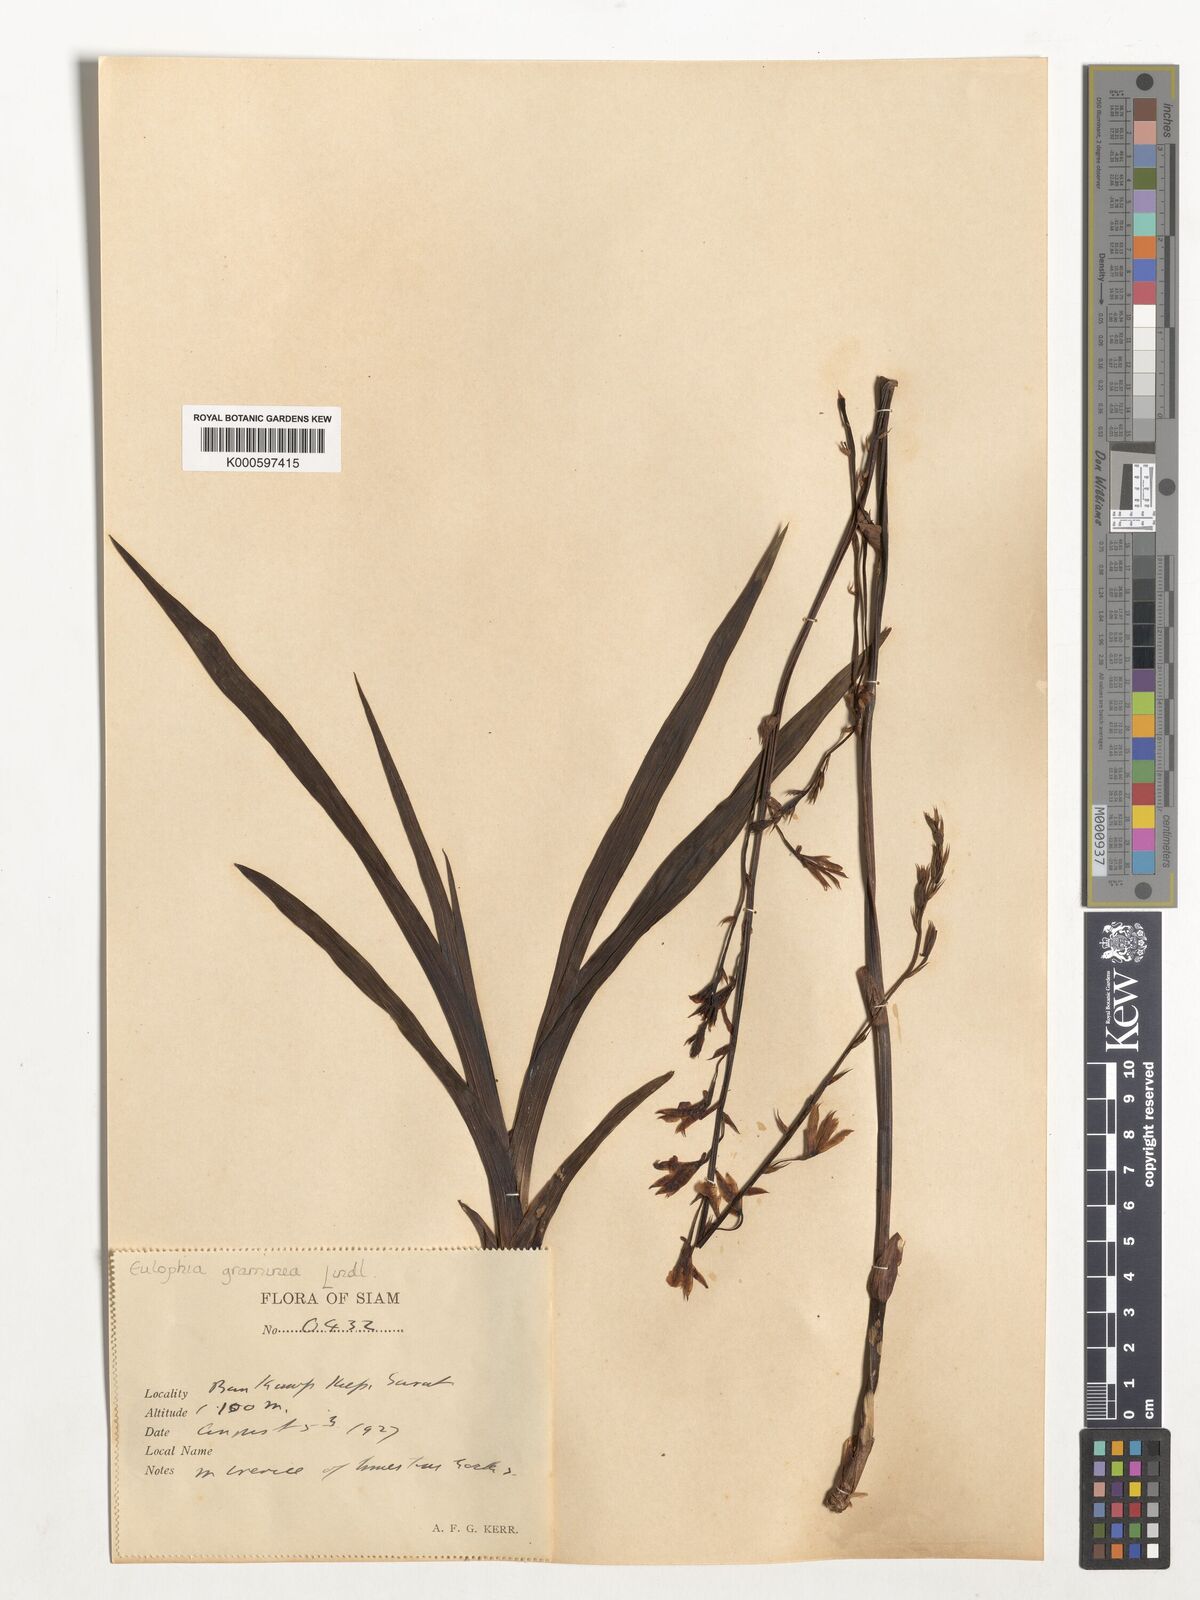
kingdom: Plantae
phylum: Tracheophyta
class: Liliopsida
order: Asparagales
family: Orchidaceae
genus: Eulophia
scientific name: Eulophia graminea
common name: Orchid
